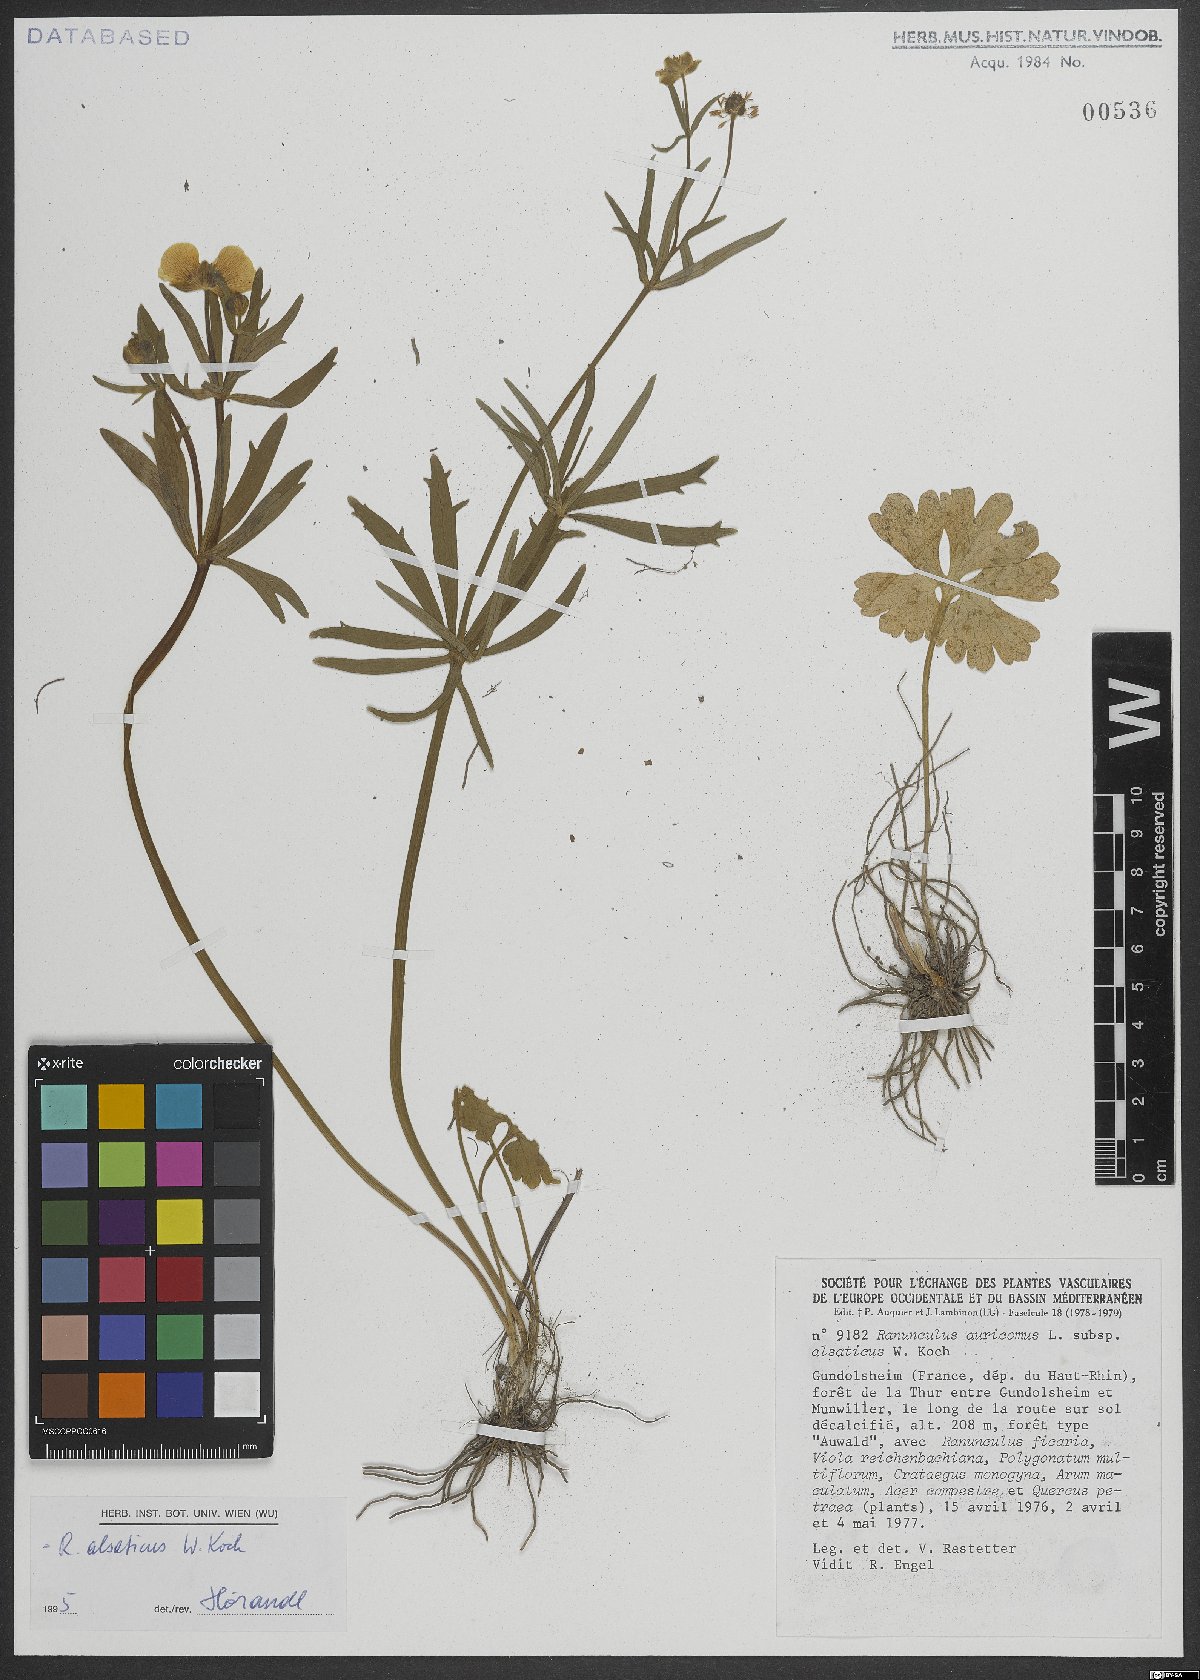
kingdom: Plantae
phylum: Tracheophyta
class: Magnoliopsida
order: Ranunculales
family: Ranunculaceae
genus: Ranunculus
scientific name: Ranunculus alsaticus
